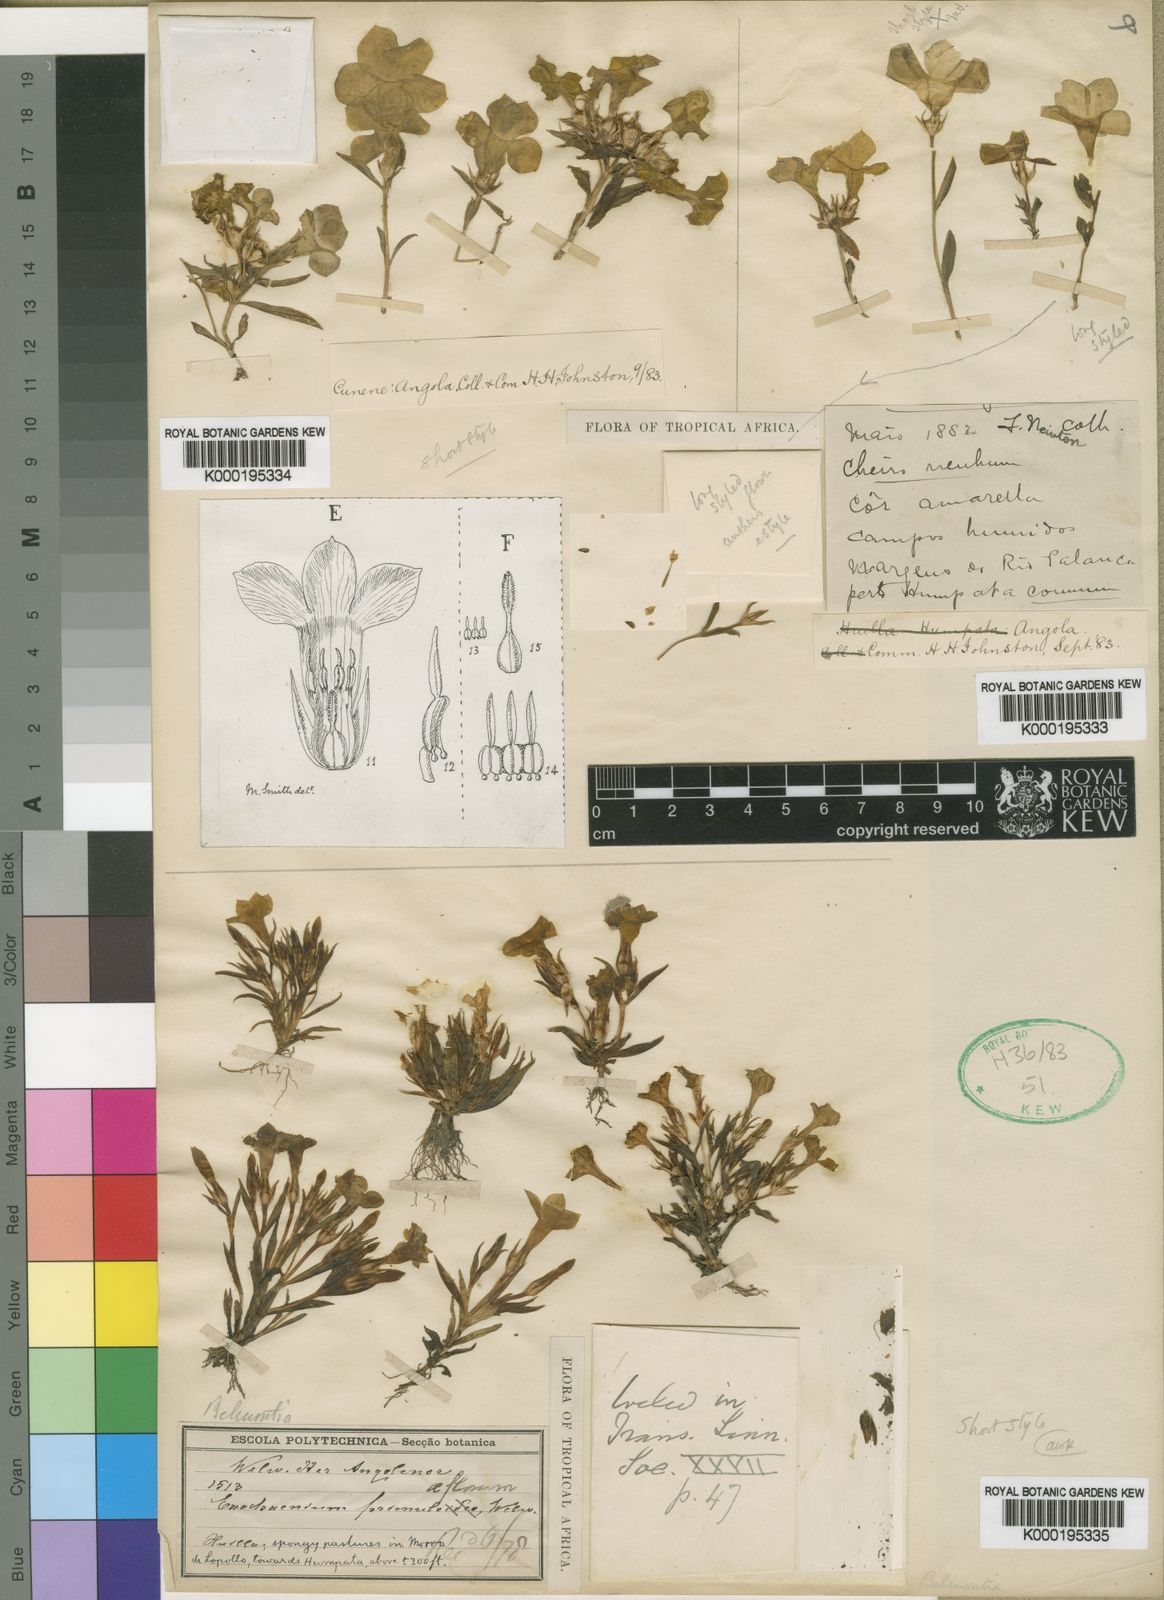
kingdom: Plantae
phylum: Tracheophyta
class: Magnoliopsida
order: Gentianales
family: Gentianaceae
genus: Exochaenium
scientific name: Exochaenium grande
